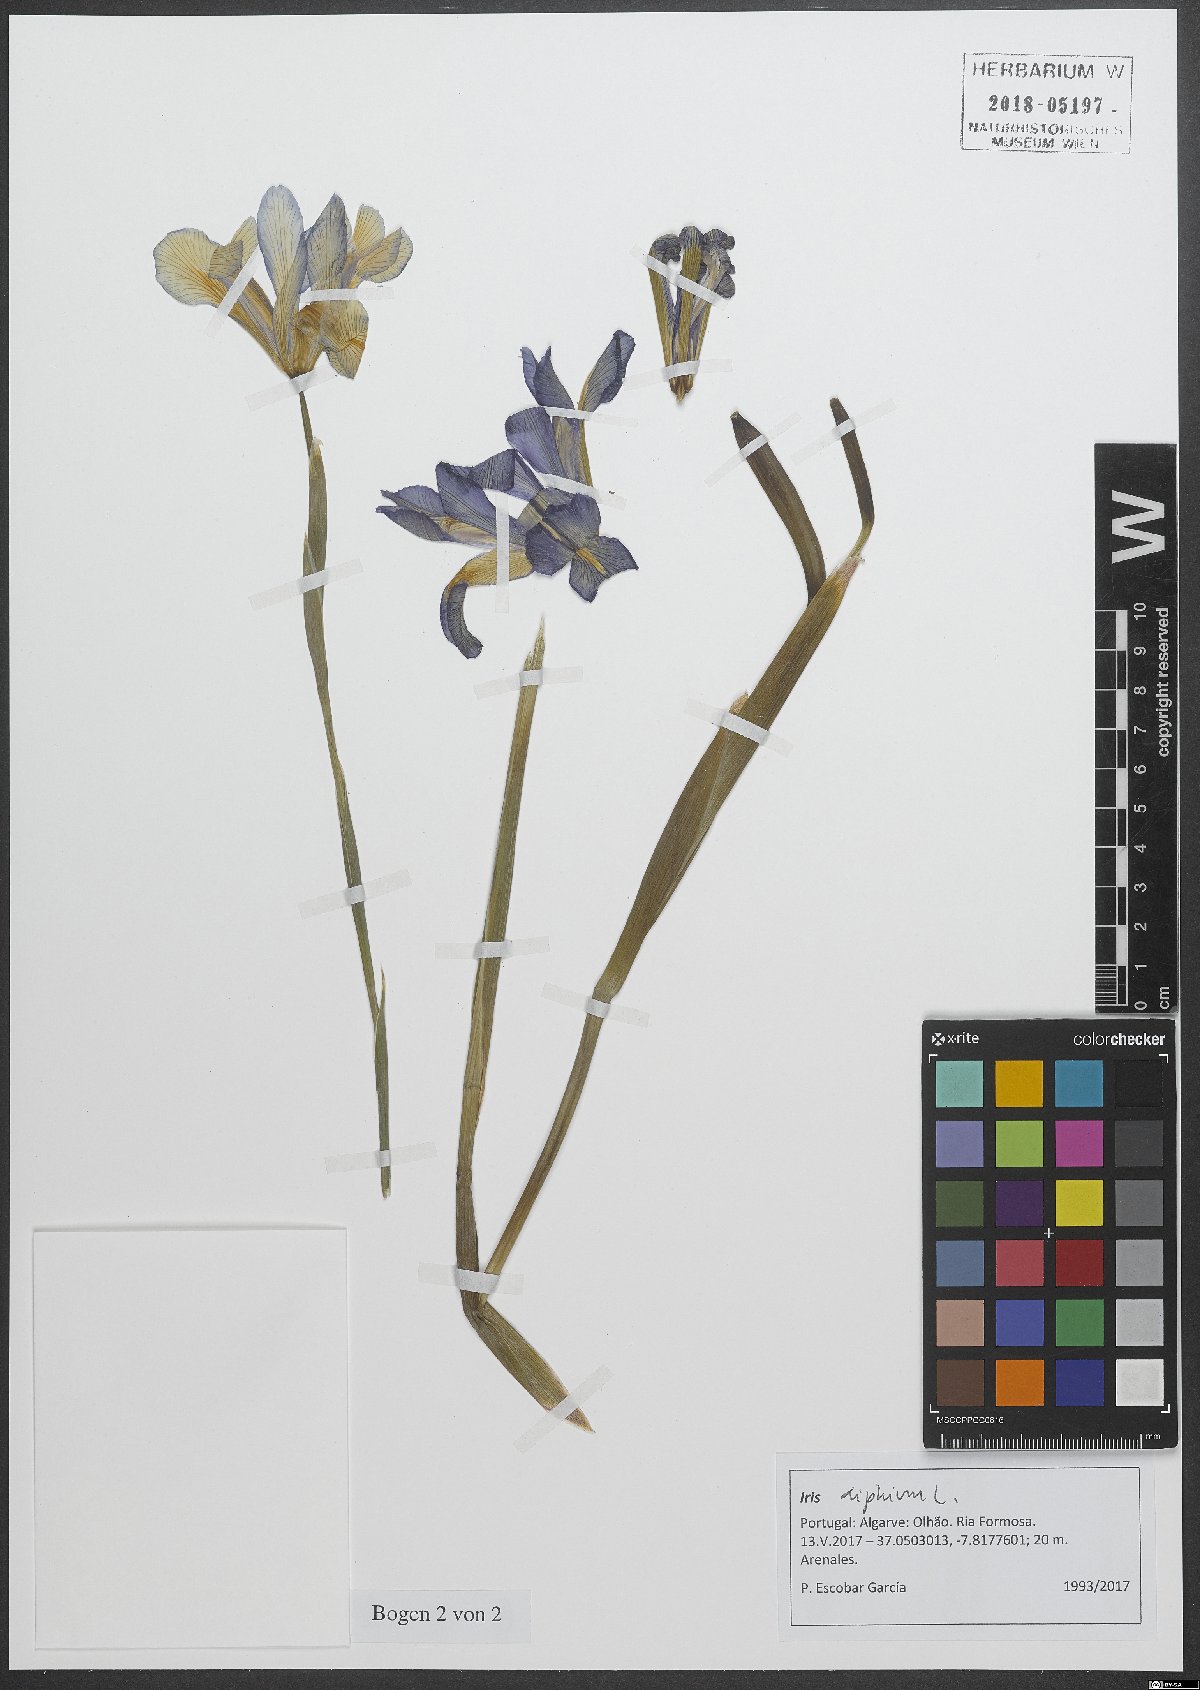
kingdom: Plantae
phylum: Tracheophyta
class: Liliopsida
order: Asparagales
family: Iridaceae
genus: Iris
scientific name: Iris xiphium
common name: Spanish iris
